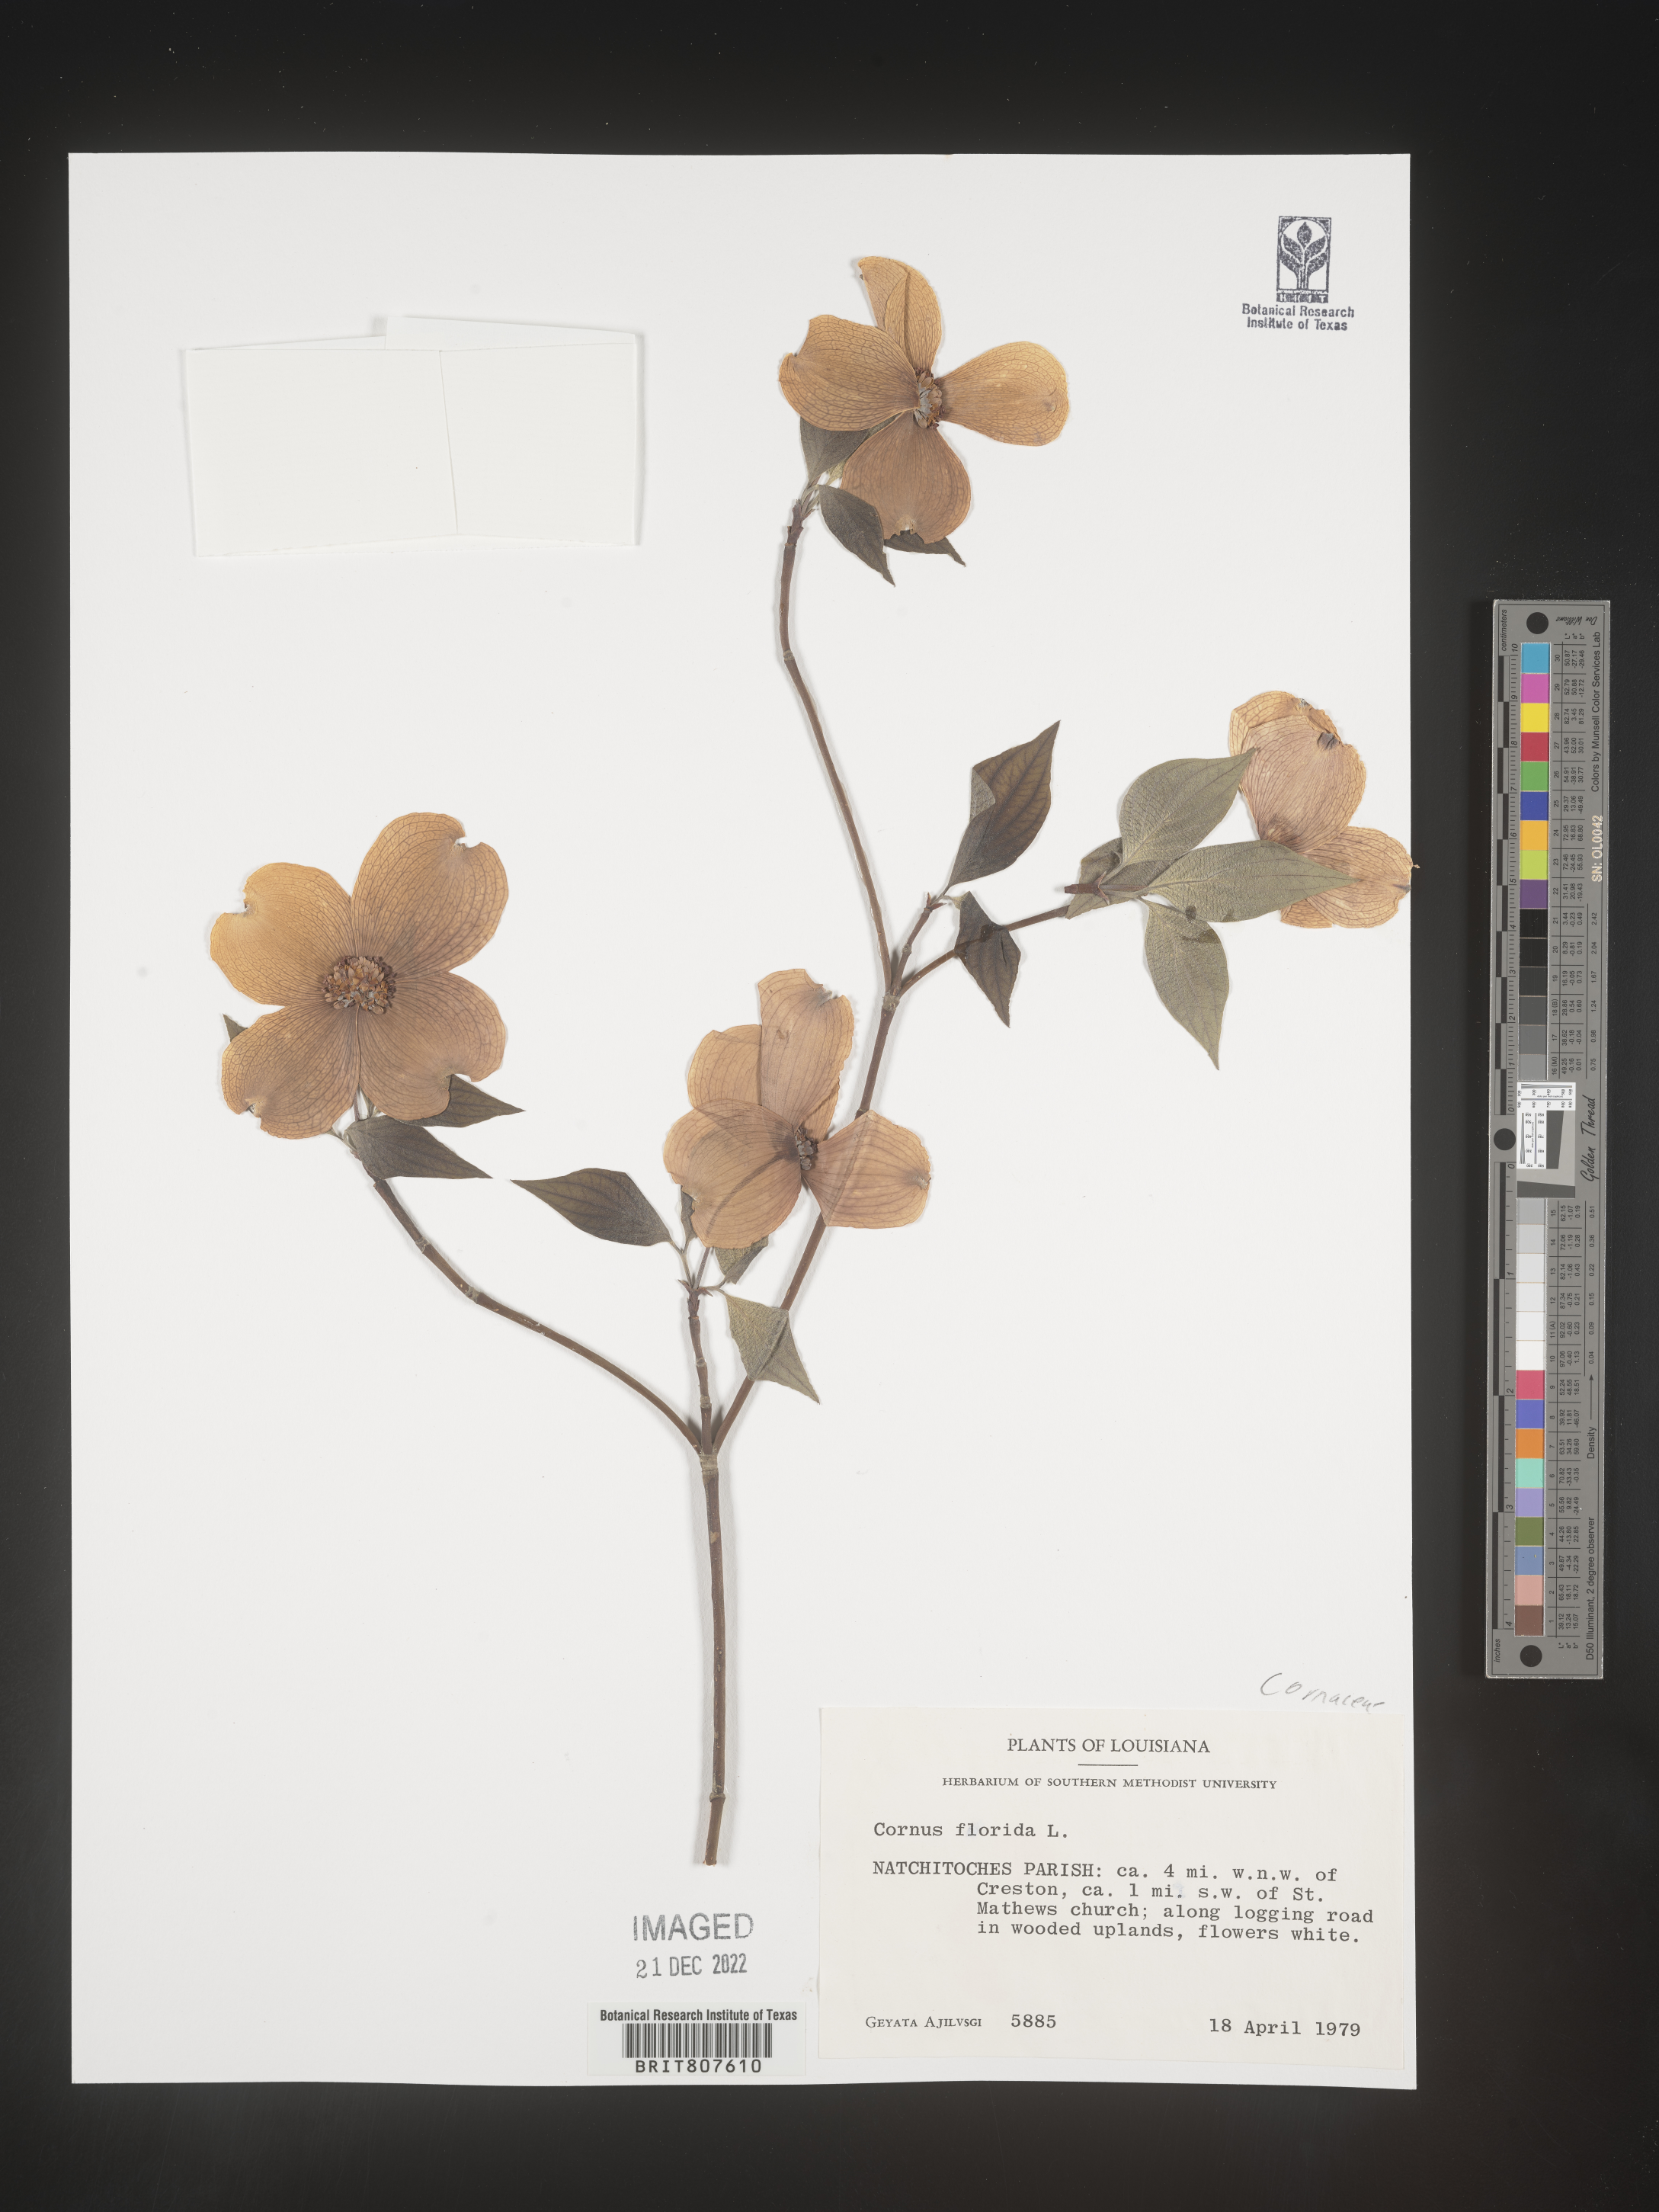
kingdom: Plantae
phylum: Tracheophyta
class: Magnoliopsida
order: Cornales
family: Cornaceae
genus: Cornus
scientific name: Cornus florida
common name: Flowering dogwood
